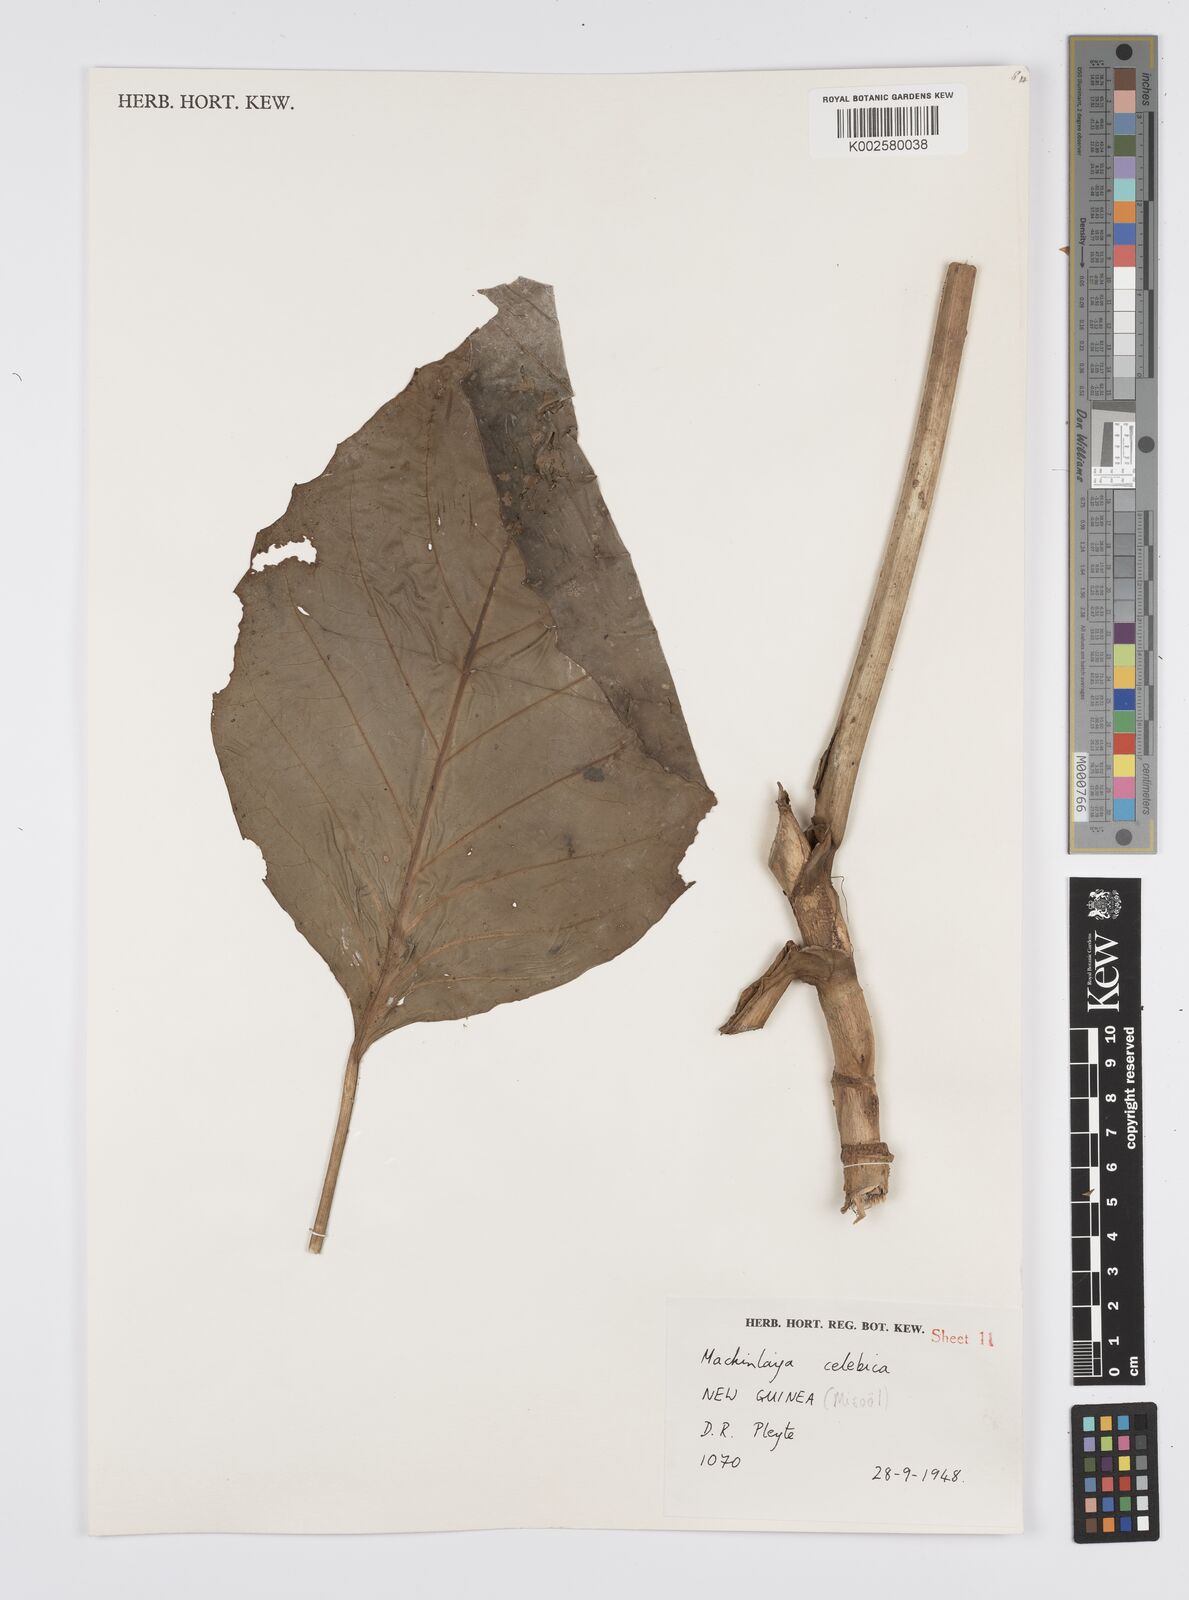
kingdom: Plantae
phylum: Tracheophyta
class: Magnoliopsida
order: Apiales
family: Apiaceae
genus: Mackinlaya
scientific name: Mackinlaya celebica
